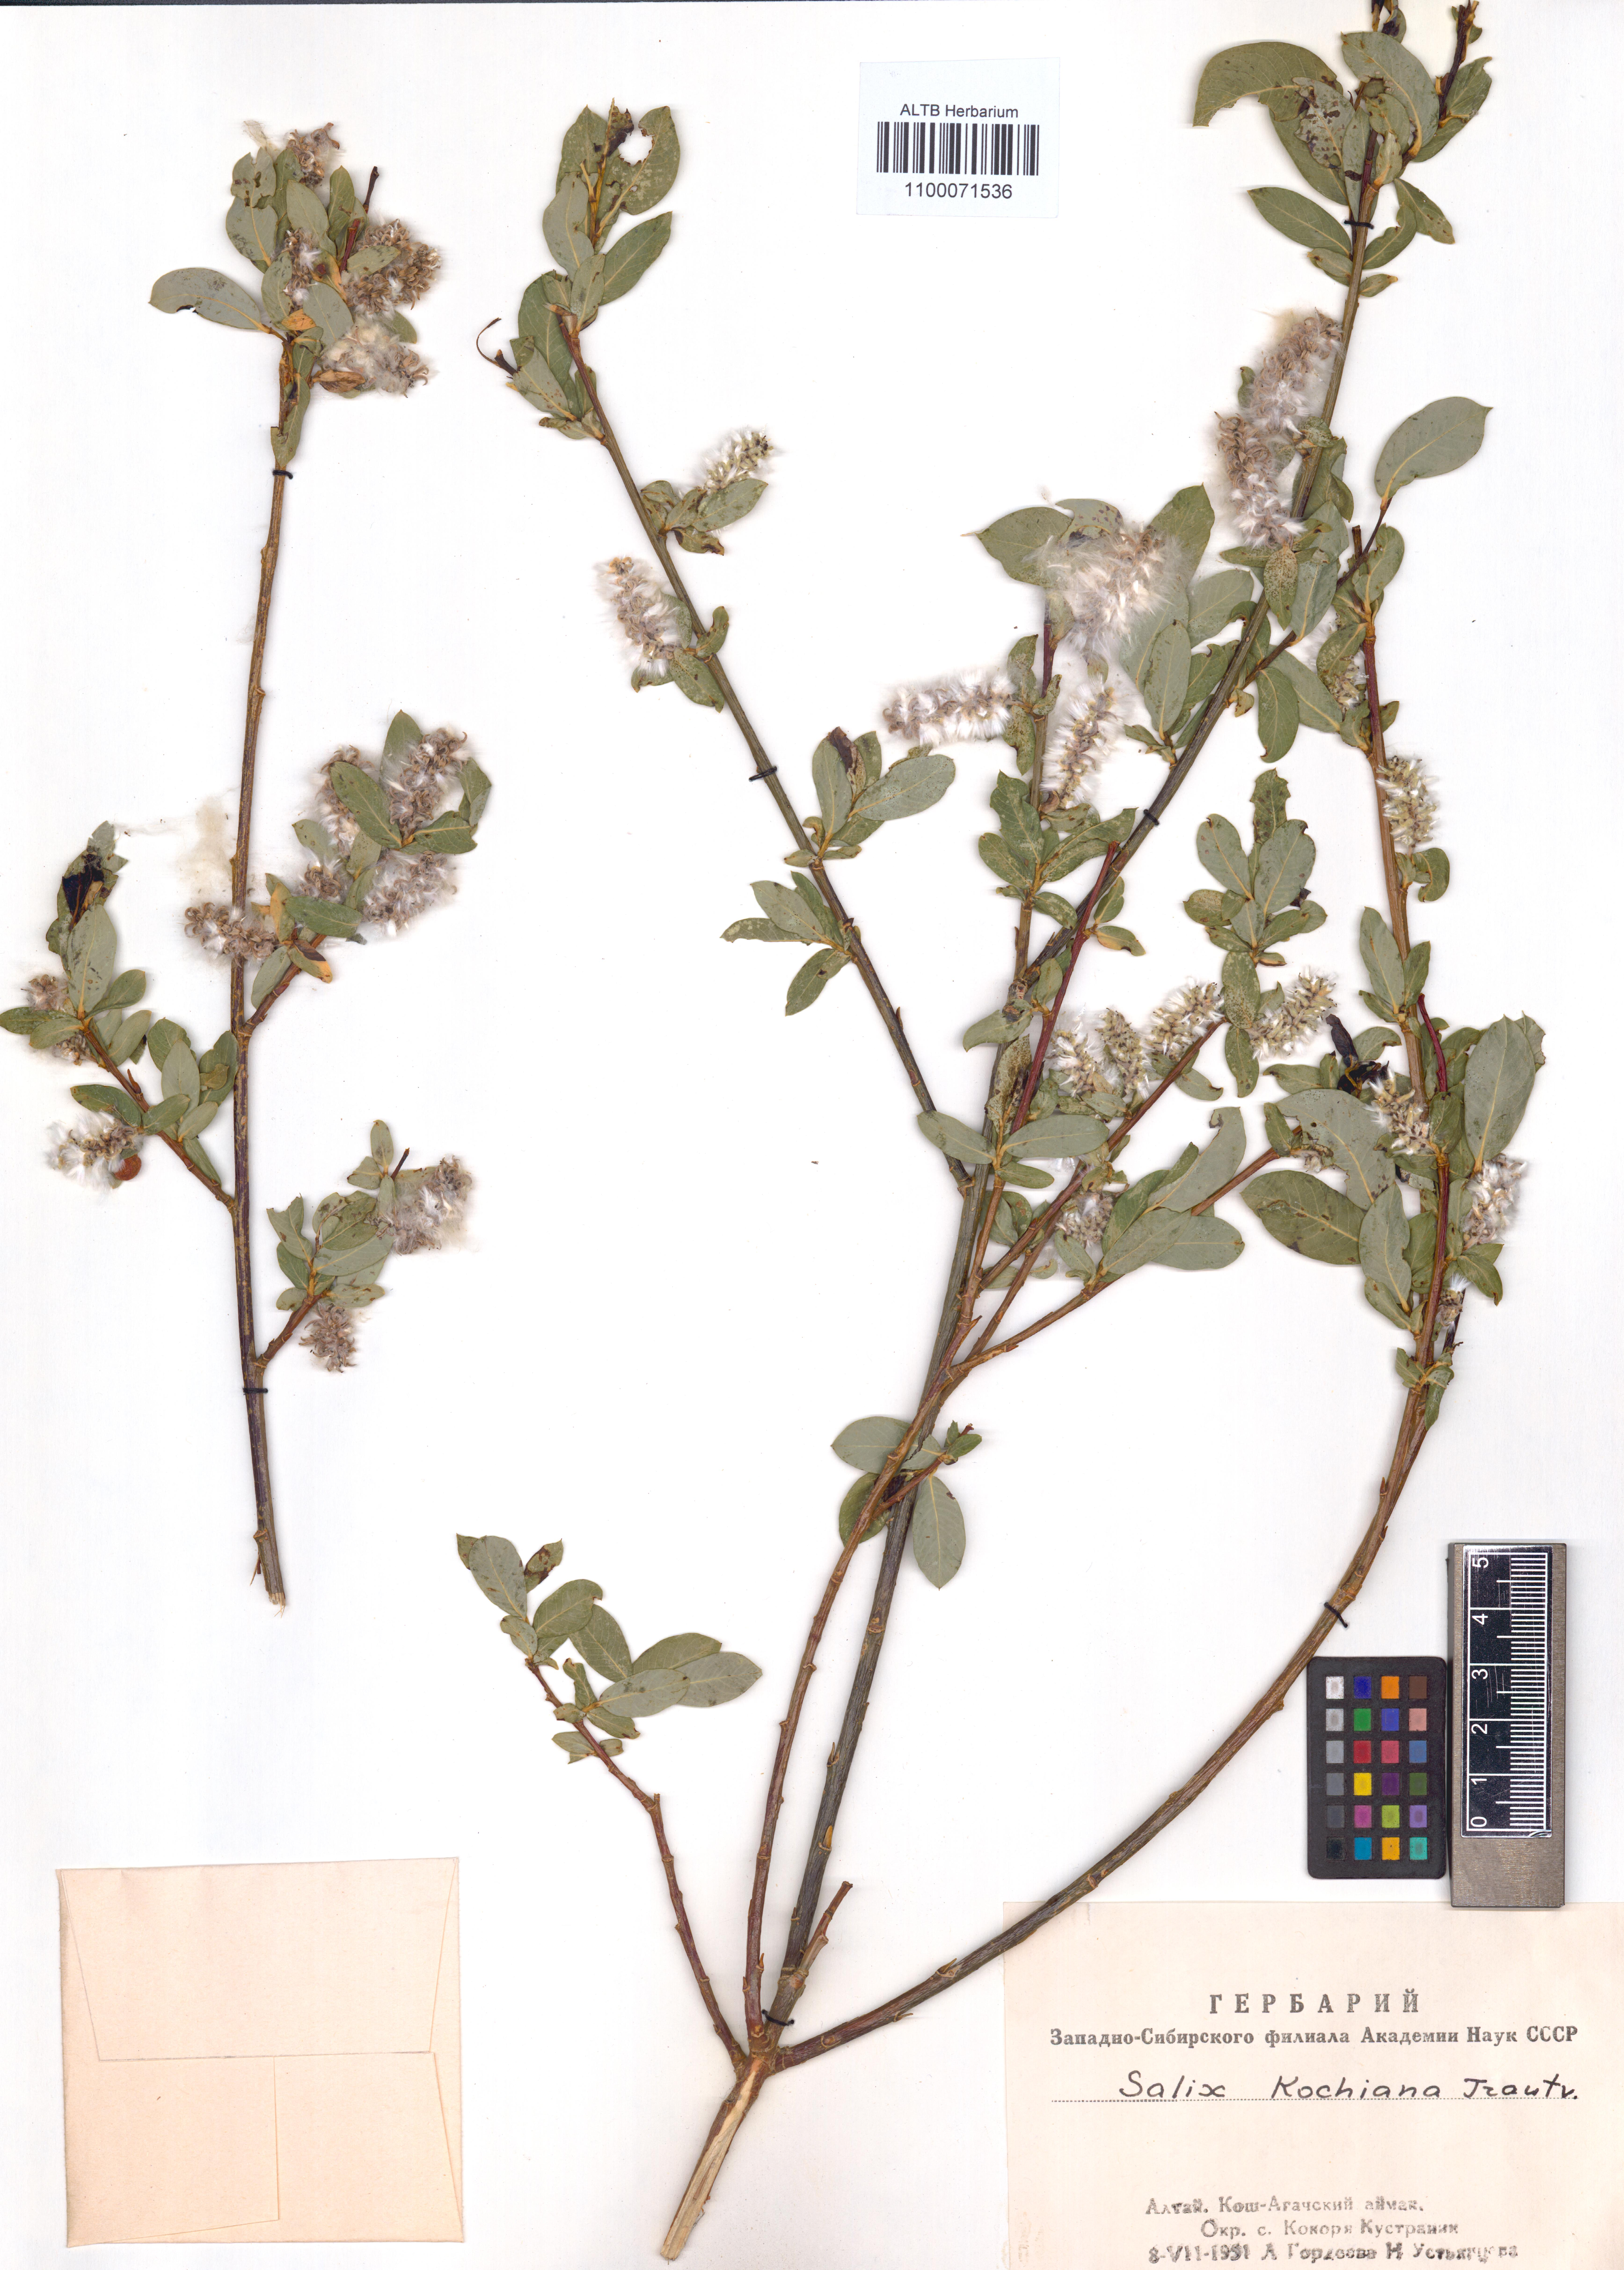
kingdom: Plantae
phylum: Tracheophyta
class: Magnoliopsida
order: Malpighiales
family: Salicaceae
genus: Salix
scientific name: Salix kochiana
